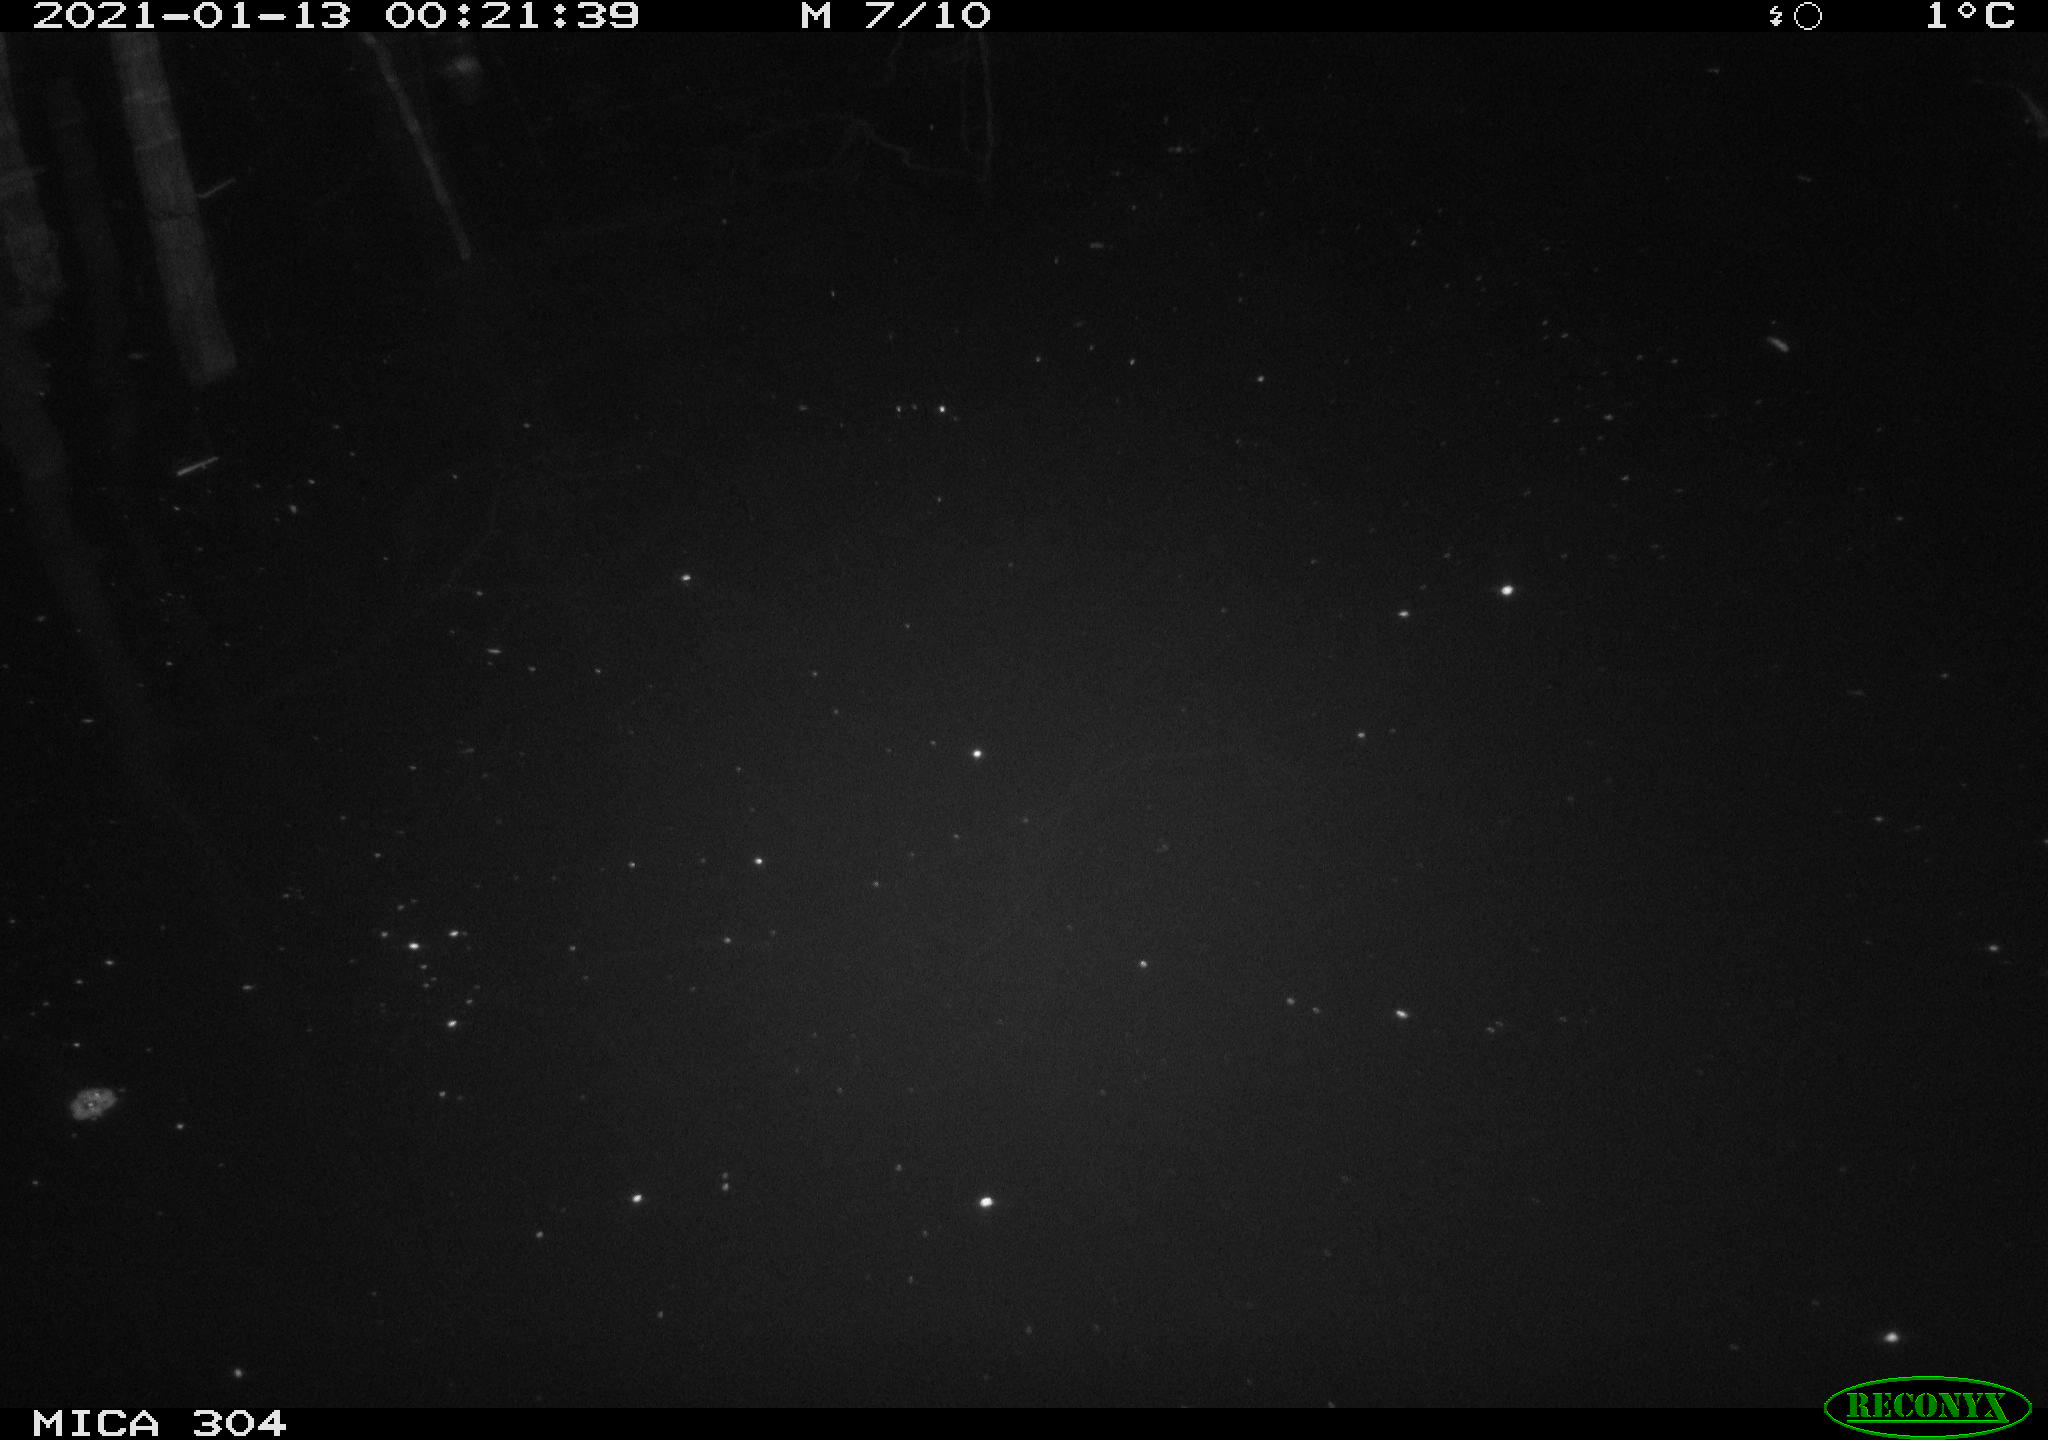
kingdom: Animalia
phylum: Chordata
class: Aves
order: Gruiformes
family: Rallidae
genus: Fulica
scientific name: Fulica atra
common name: Eurasian coot
